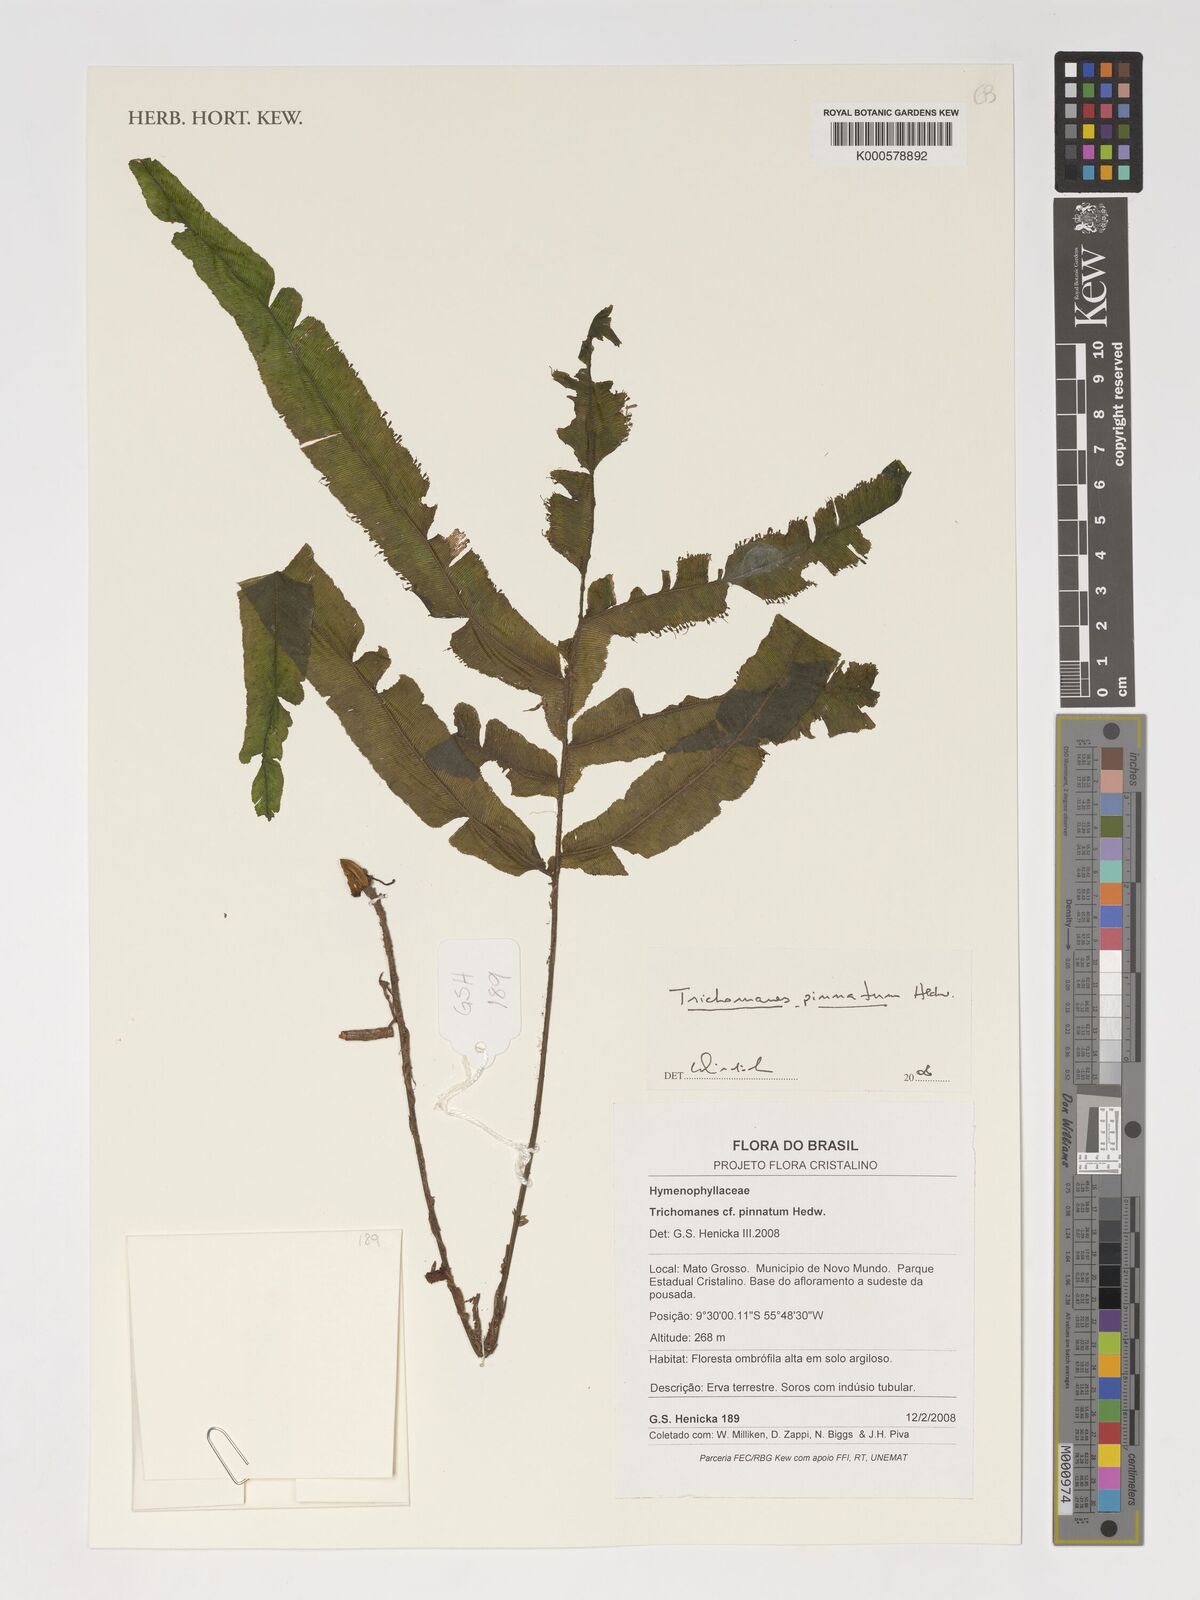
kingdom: Plantae
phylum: Tracheophyta
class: Polypodiopsida
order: Hymenophyllales
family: Hymenophyllaceae
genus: Trichomanes
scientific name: Trichomanes pinnatum
